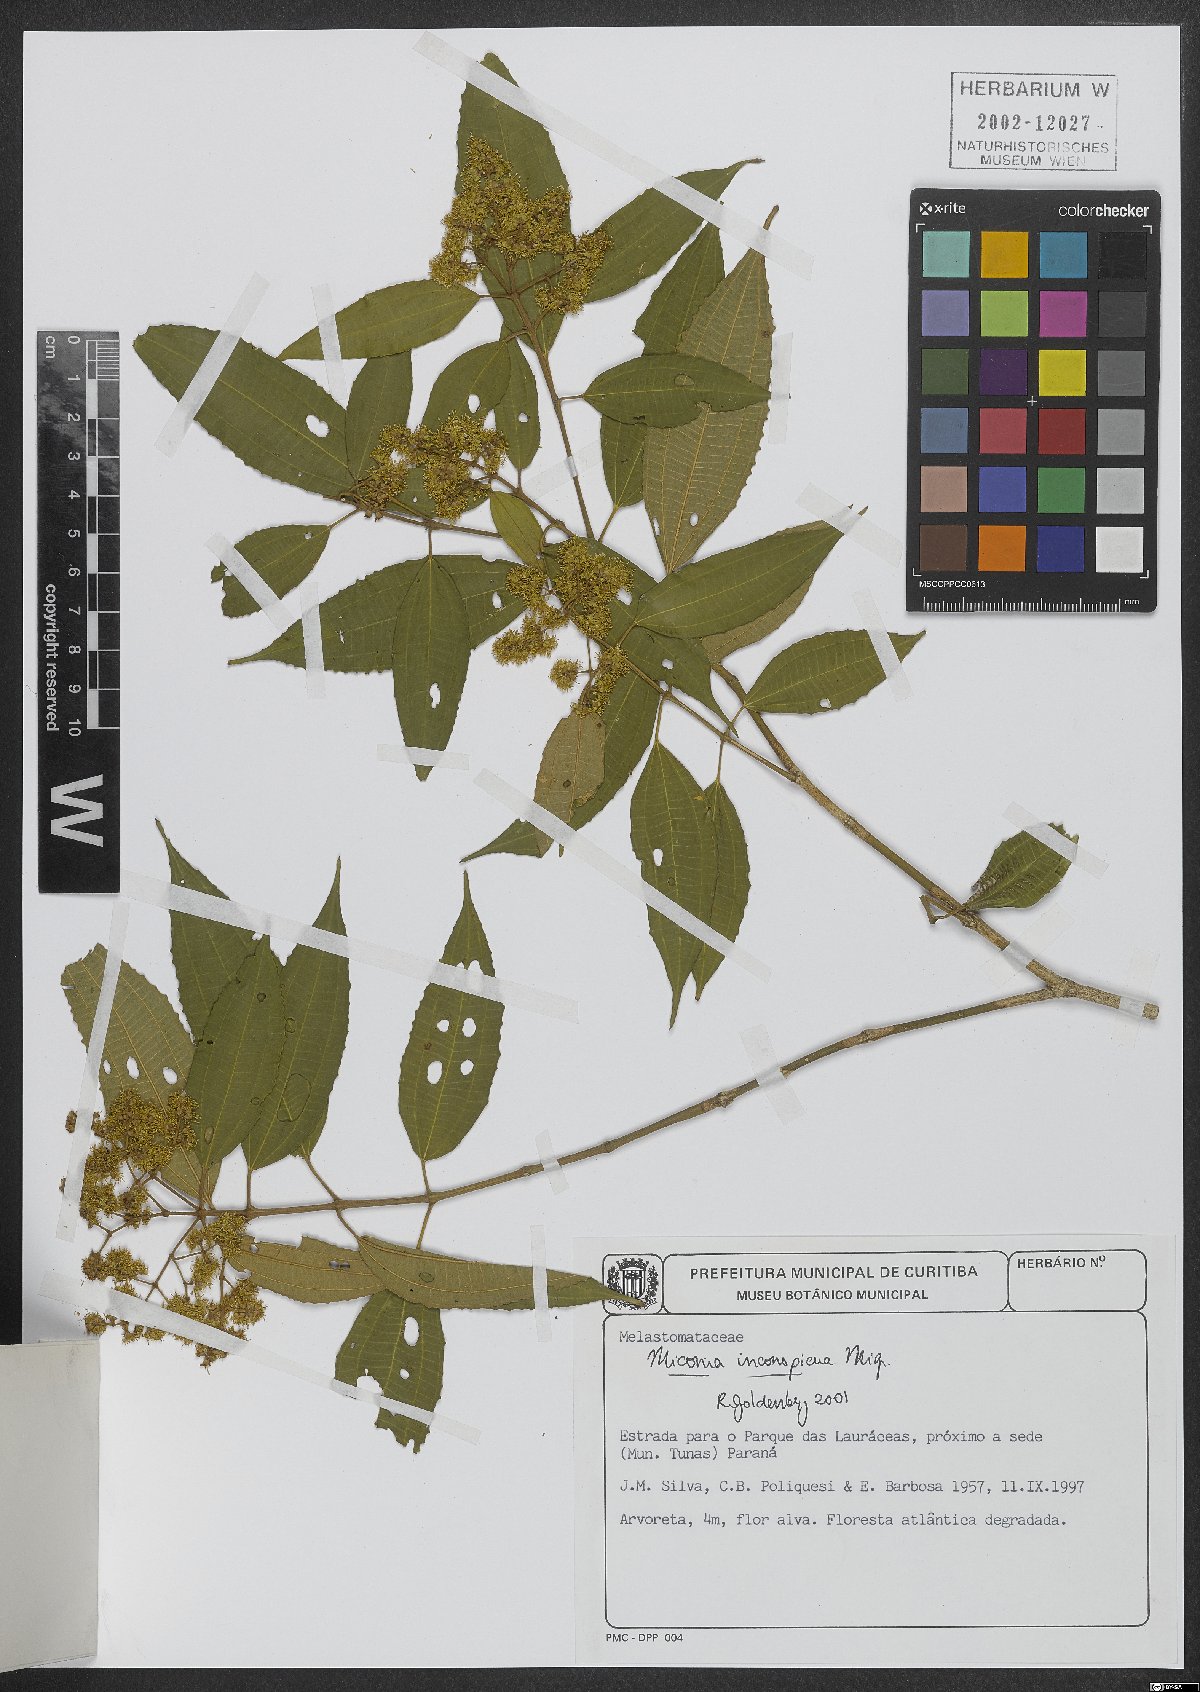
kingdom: Plantae
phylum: Tracheophyta
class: Magnoliopsida
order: Myrtales
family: Melastomataceae
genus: Miconia
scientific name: Miconia inconspicua
